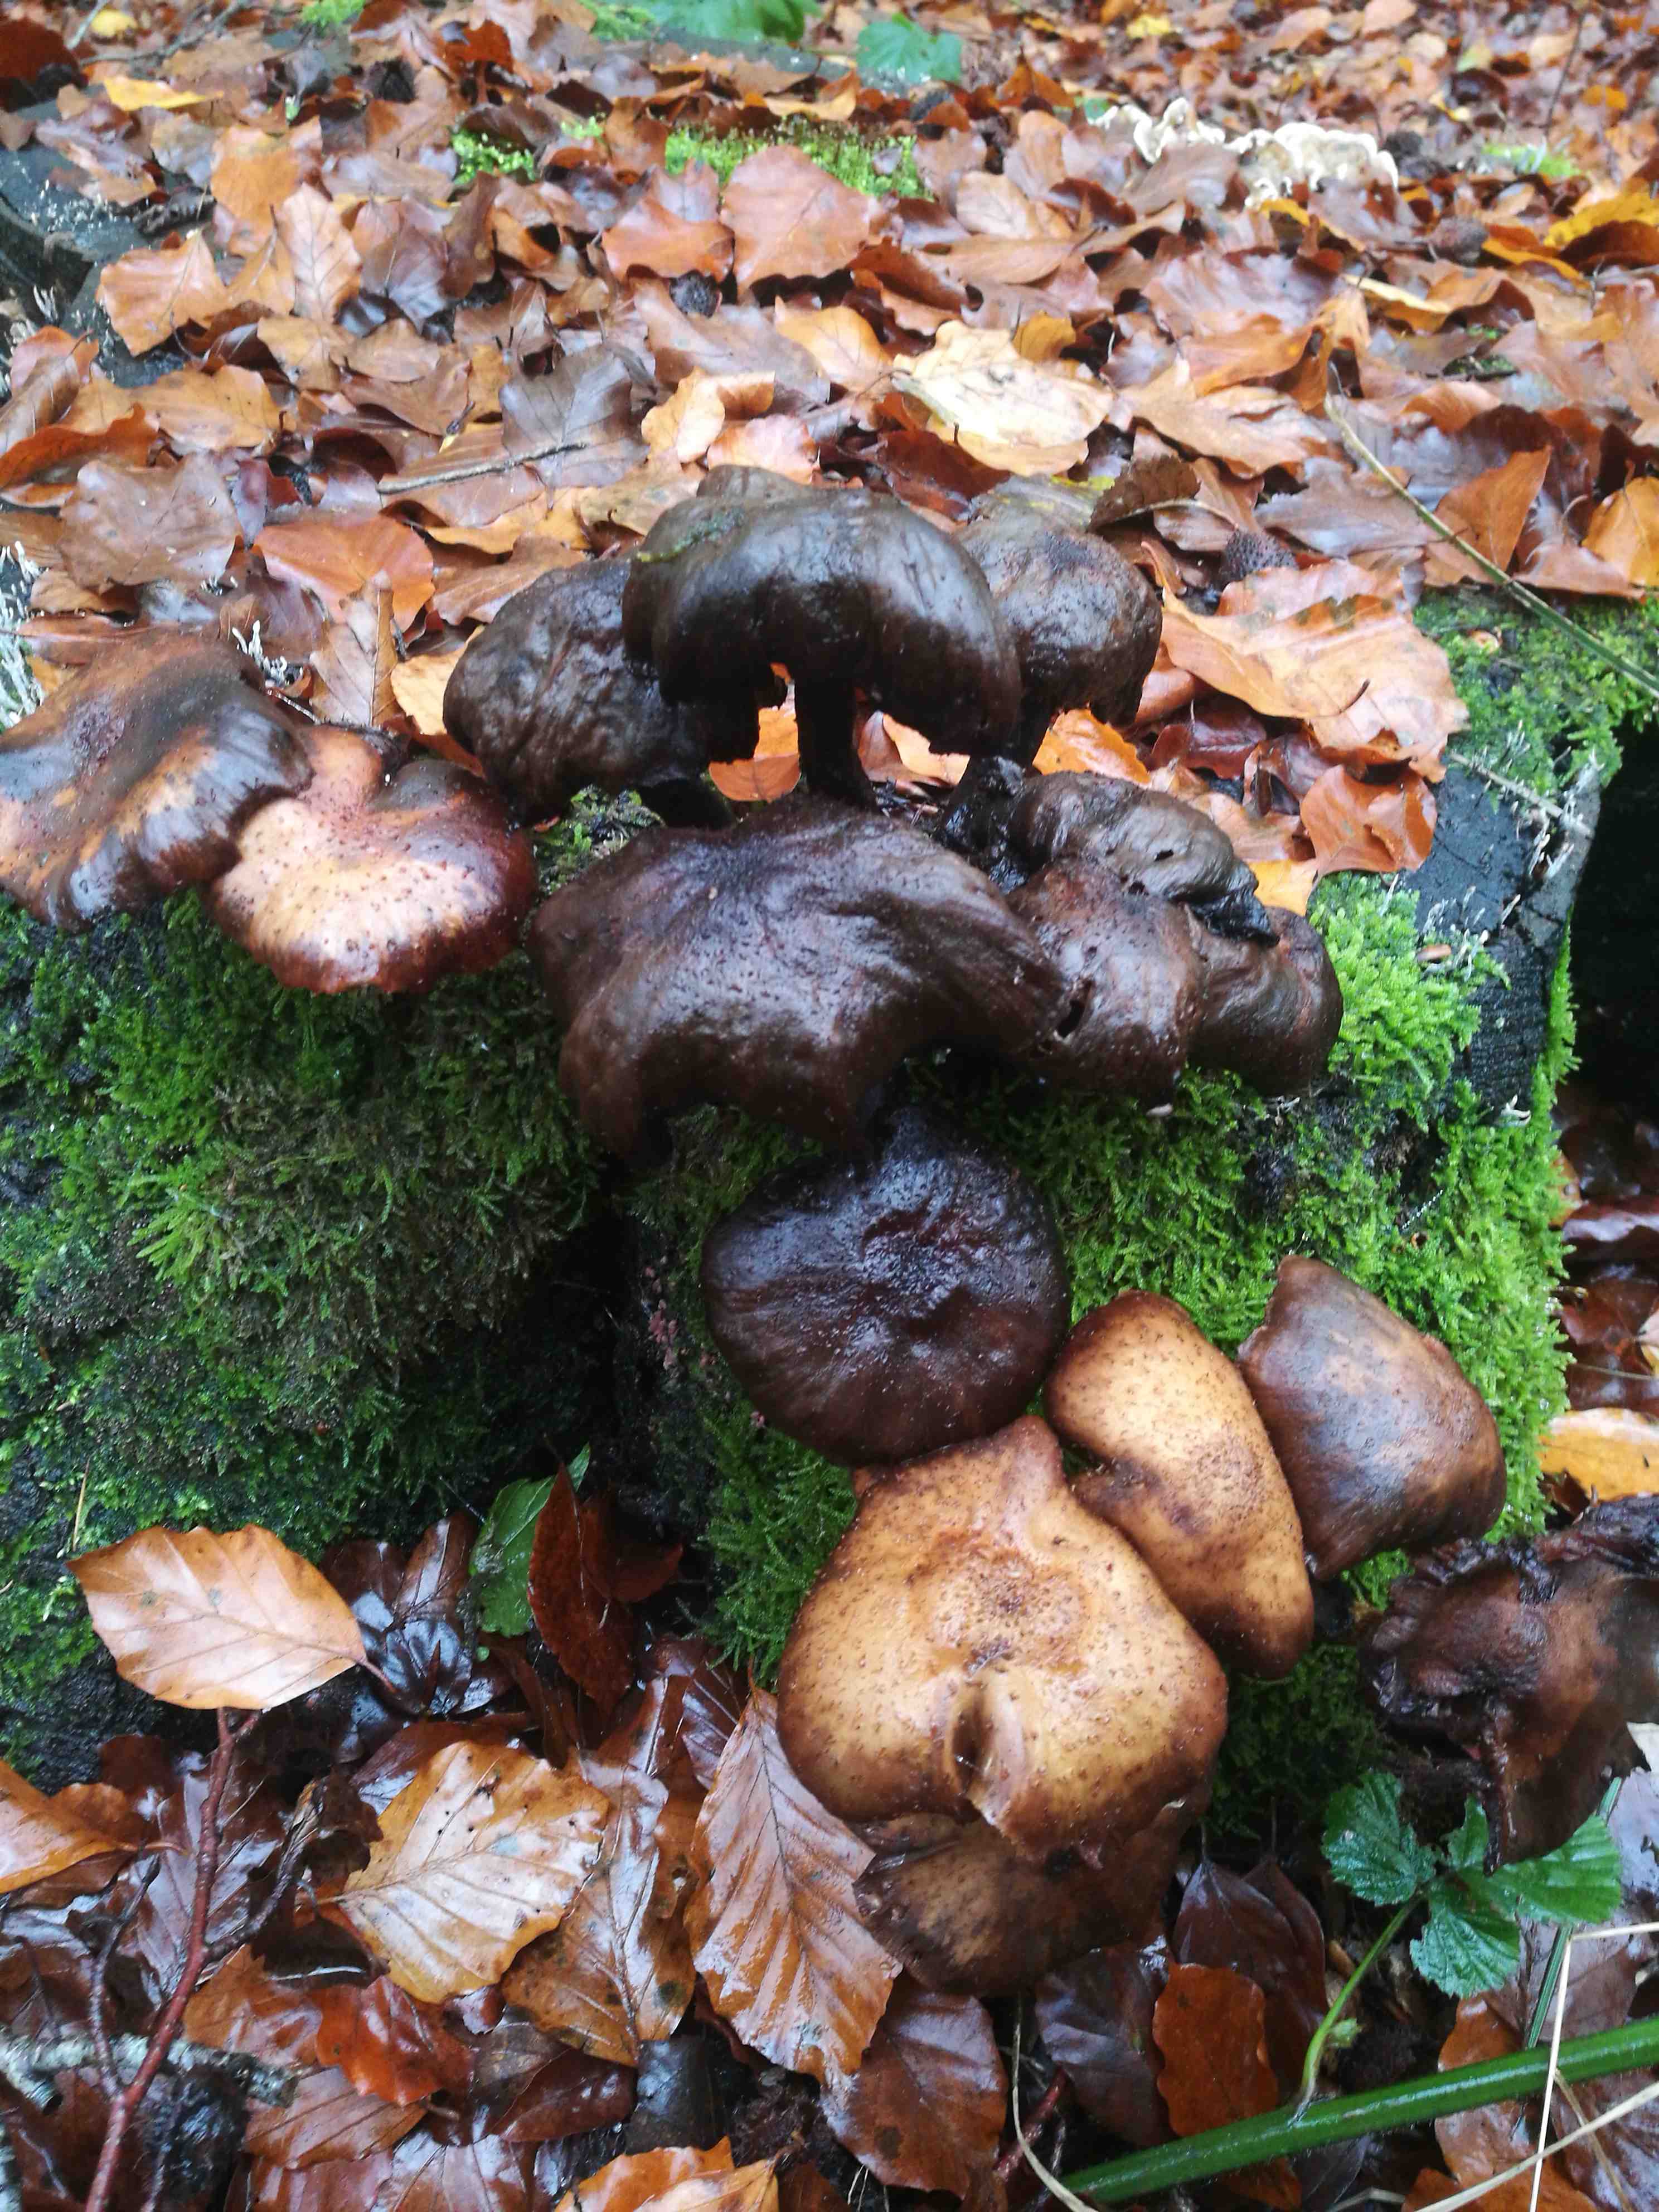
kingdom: Fungi
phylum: Basidiomycota
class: Agaricomycetes
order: Agaricales
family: Physalacriaceae
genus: Armillaria
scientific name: Armillaria
